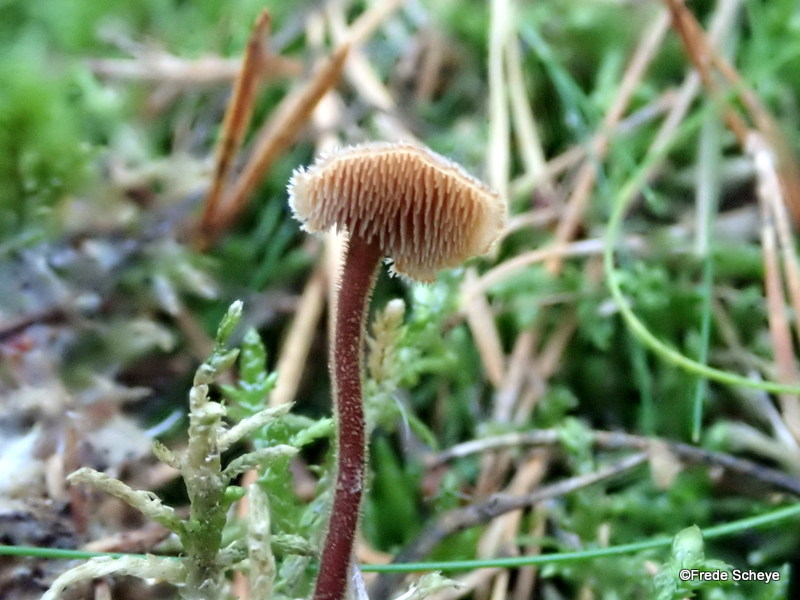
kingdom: Fungi
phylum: Basidiomycota
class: Agaricomycetes
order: Russulales
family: Auriscalpiaceae
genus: Auriscalpium
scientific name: Auriscalpium vulgare
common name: koglepigsvamp
